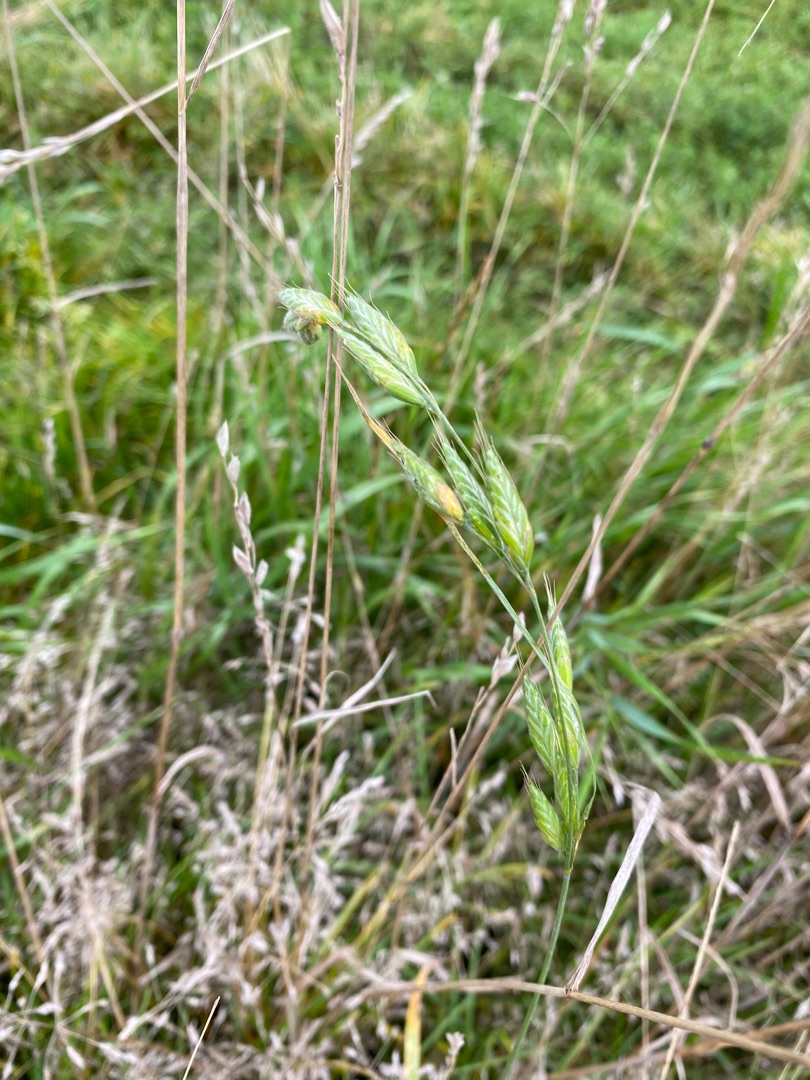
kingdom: Plantae
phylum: Tracheophyta
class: Liliopsida
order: Poales
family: Poaceae
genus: Bromus
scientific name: Bromus hordeaceus
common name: Blød hejre
